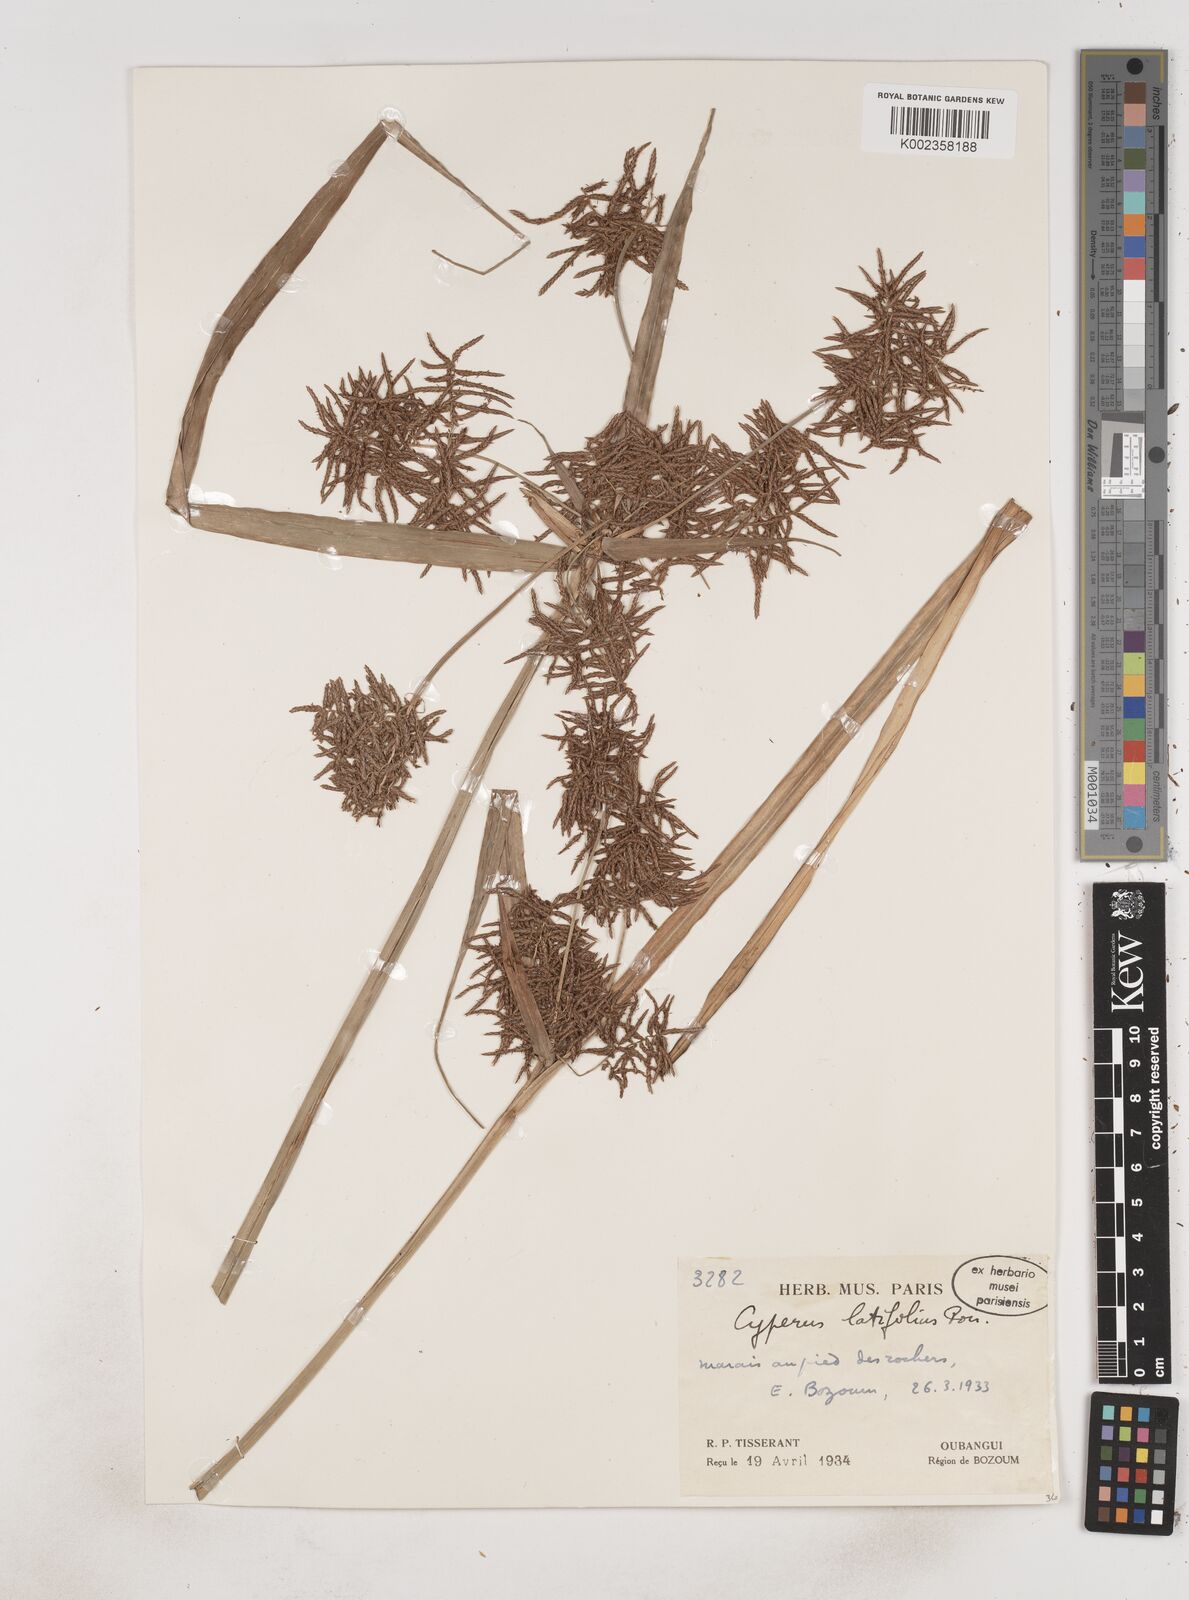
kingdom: Plantae
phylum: Tracheophyta
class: Liliopsida
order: Poales
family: Cyperaceae
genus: Cyperus
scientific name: Cyperus latifolius
